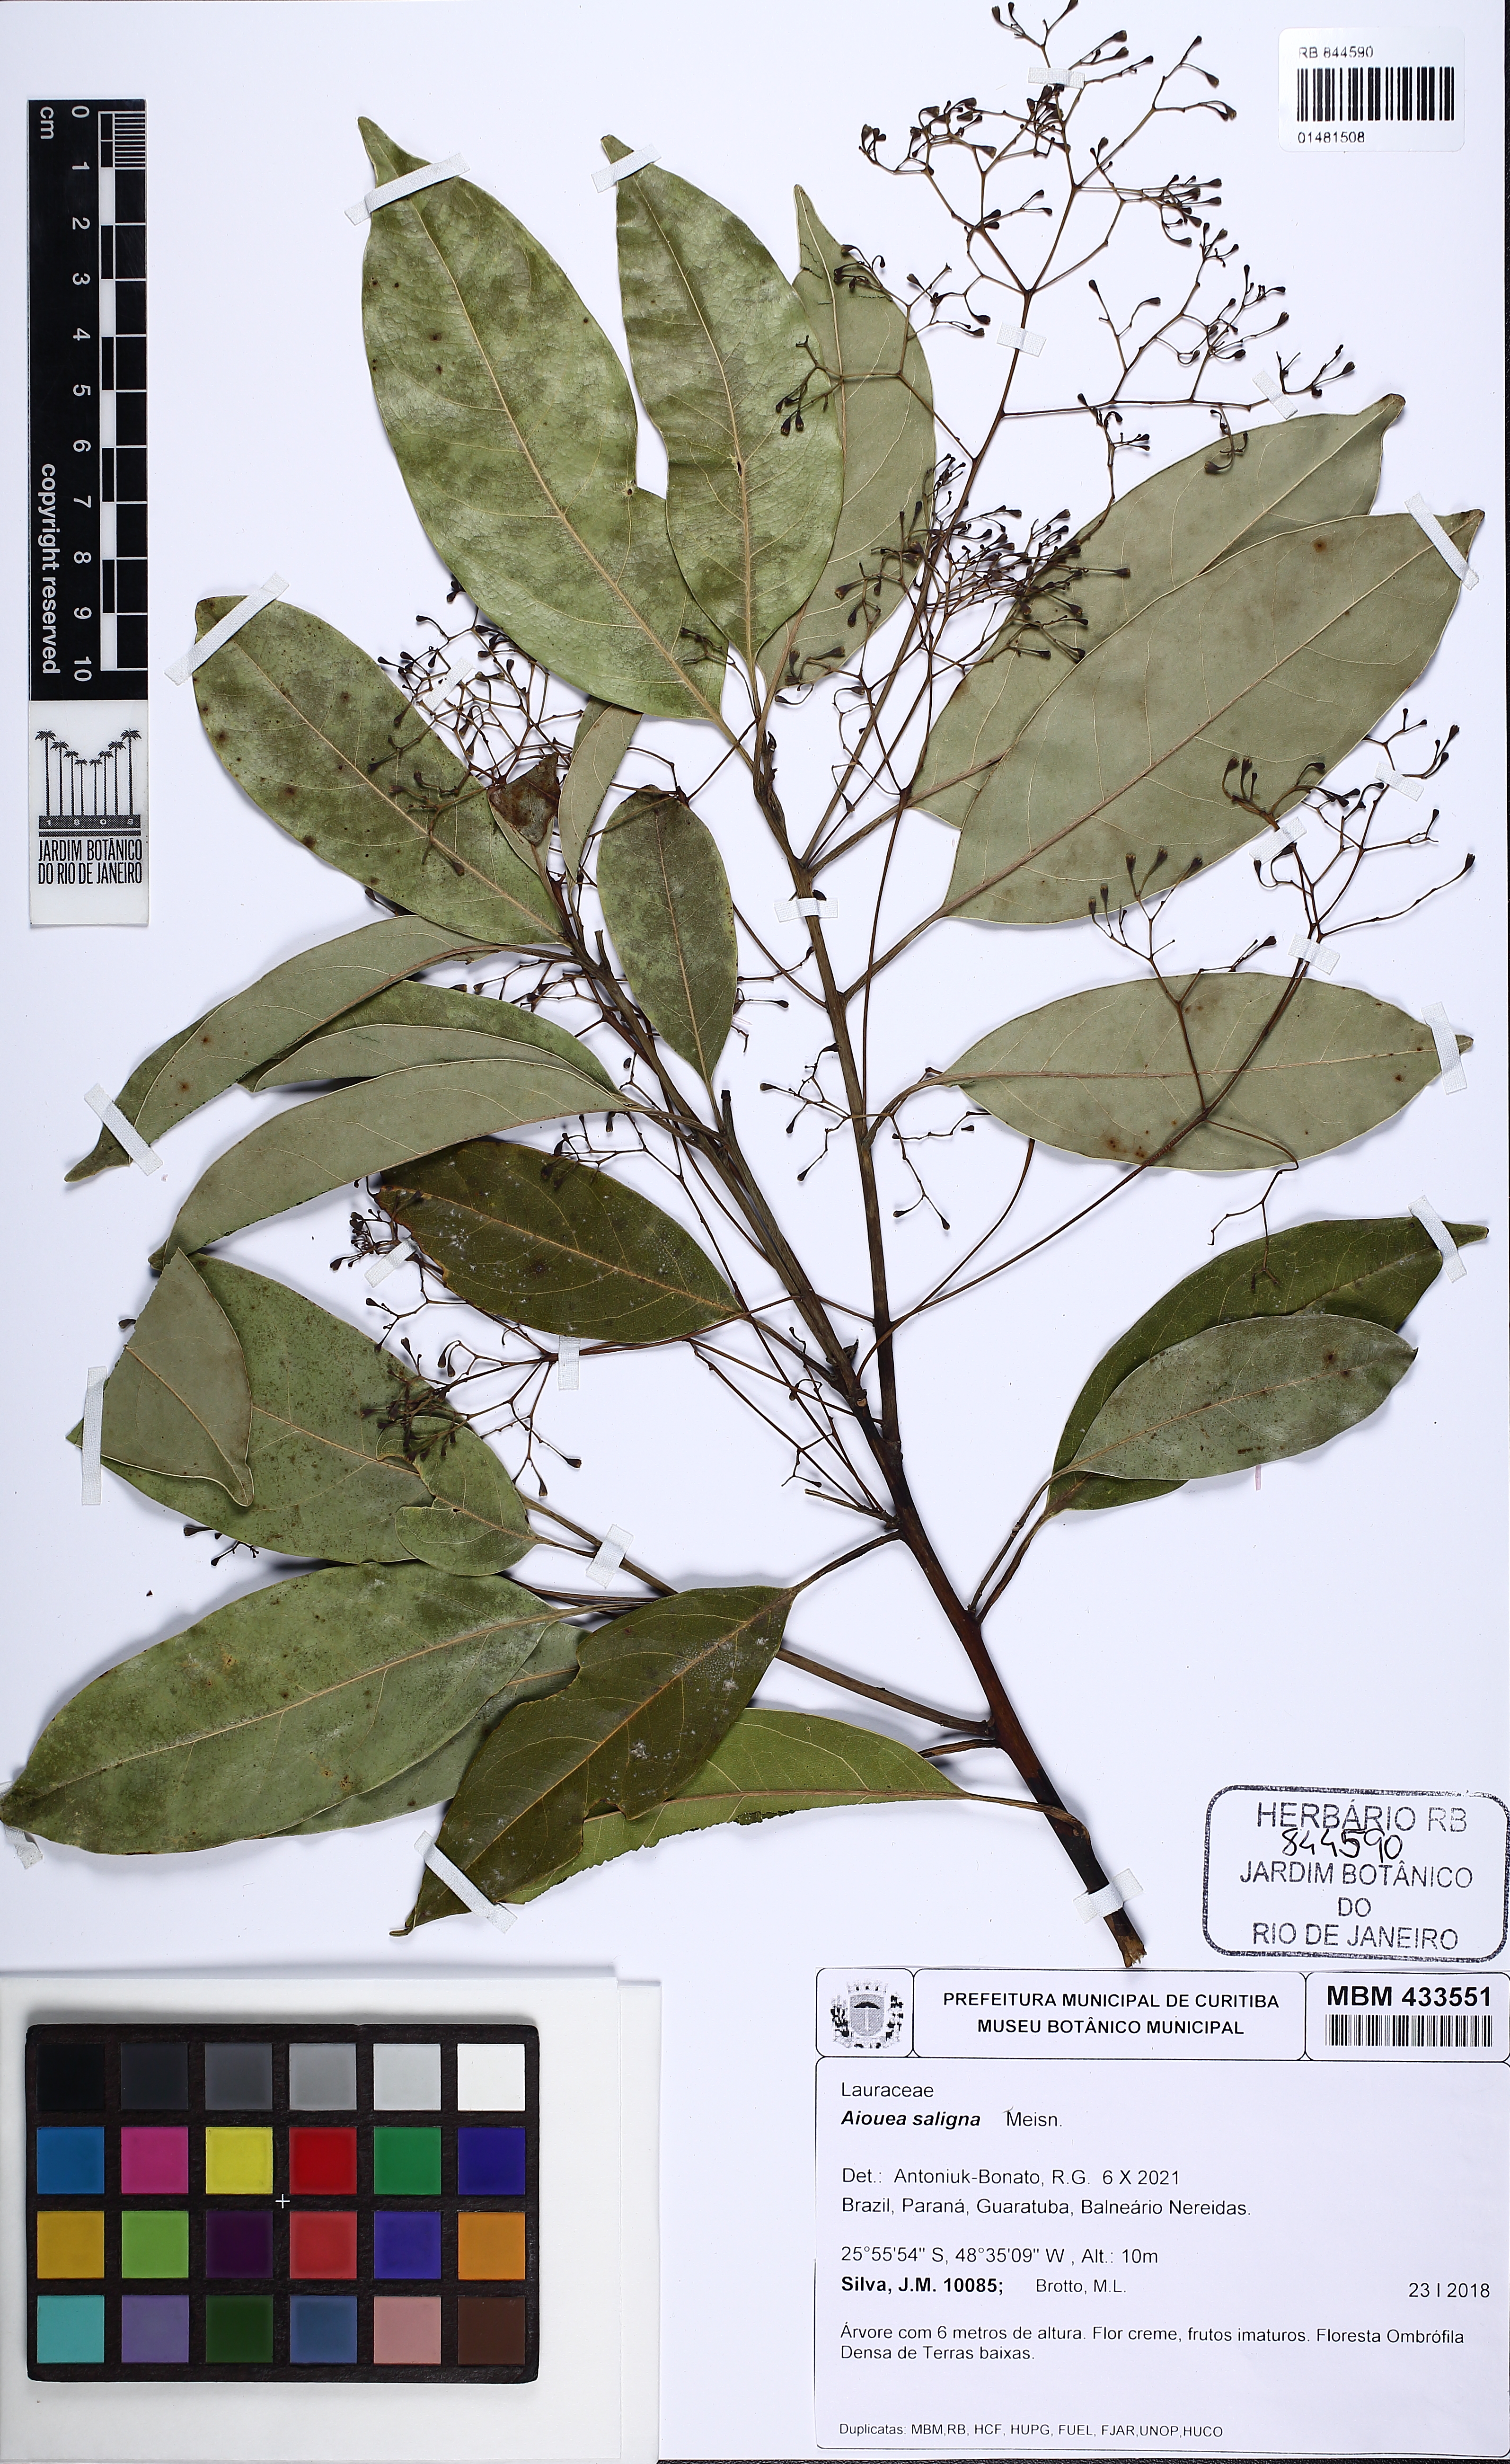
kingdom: Plantae
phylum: Tracheophyta
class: Magnoliopsida
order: Laurales
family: Lauraceae
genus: Aiouea
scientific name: Aiouea saligna
